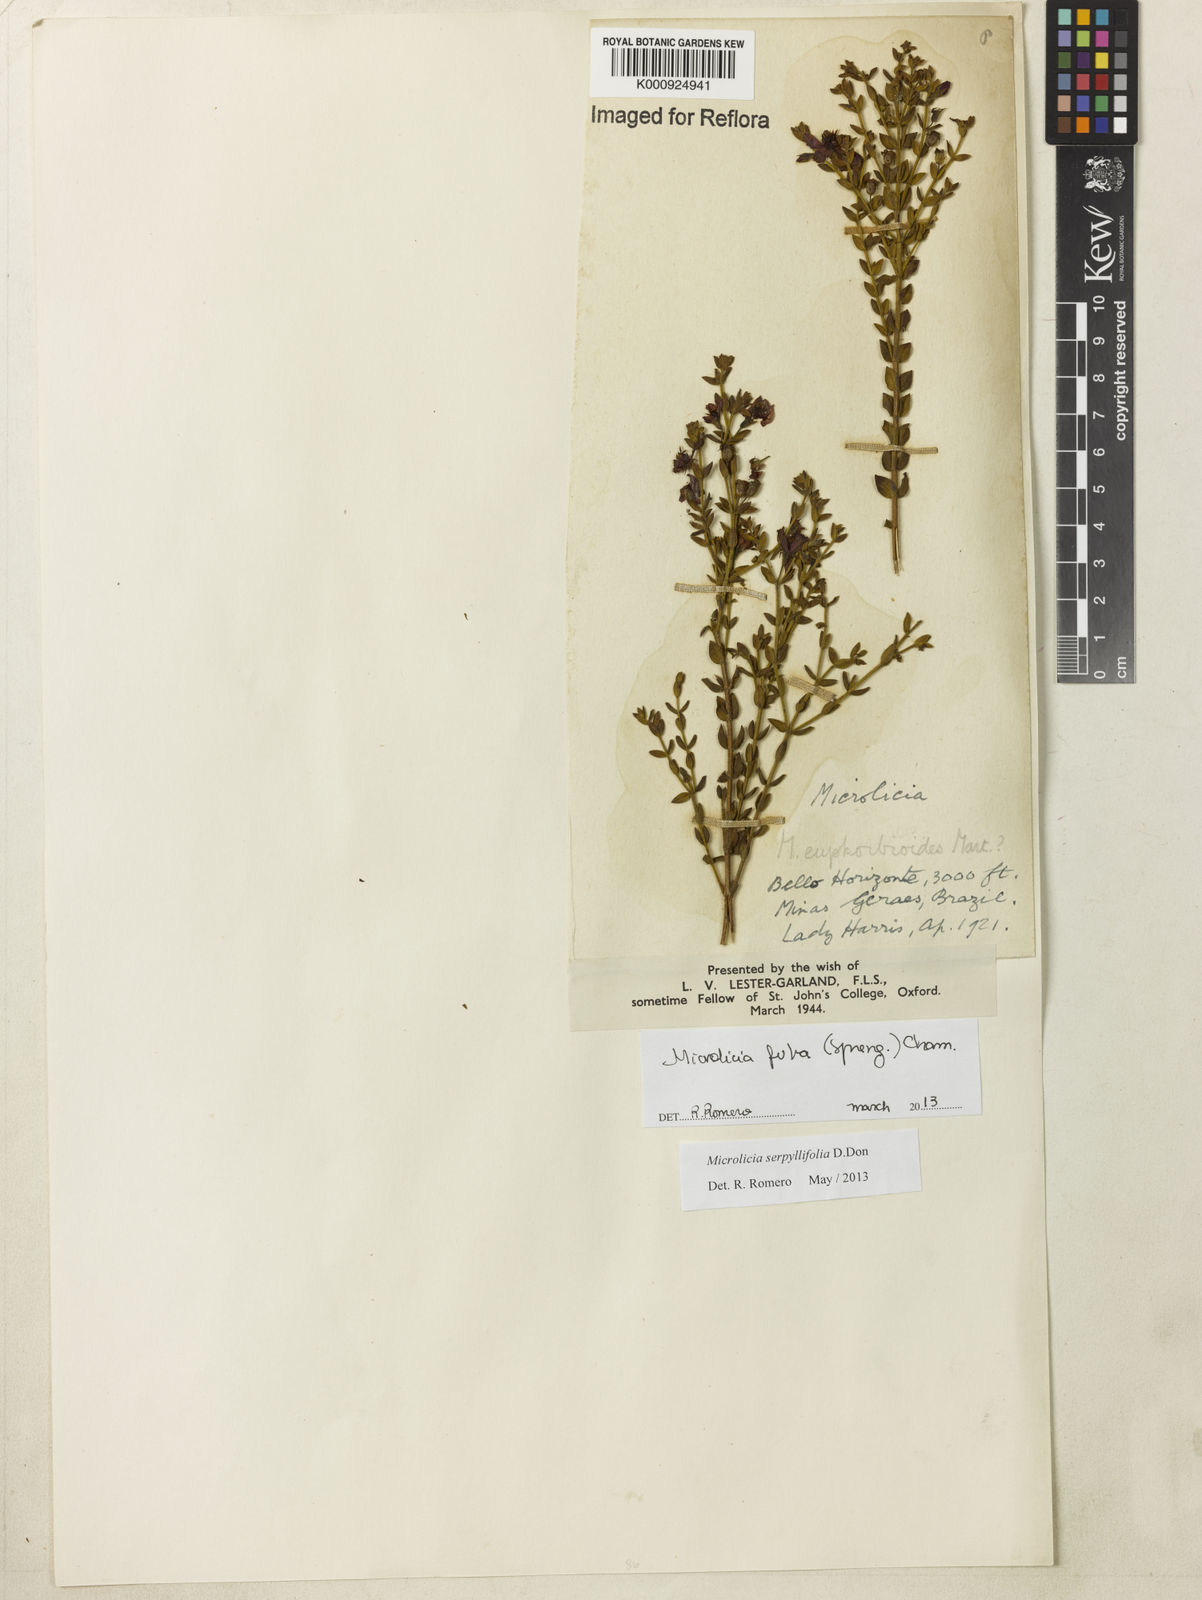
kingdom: Plantae
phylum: Tracheophyta
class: Magnoliopsida
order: Myrtales
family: Melastomataceae
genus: Microlicia
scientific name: Microlicia fulva
